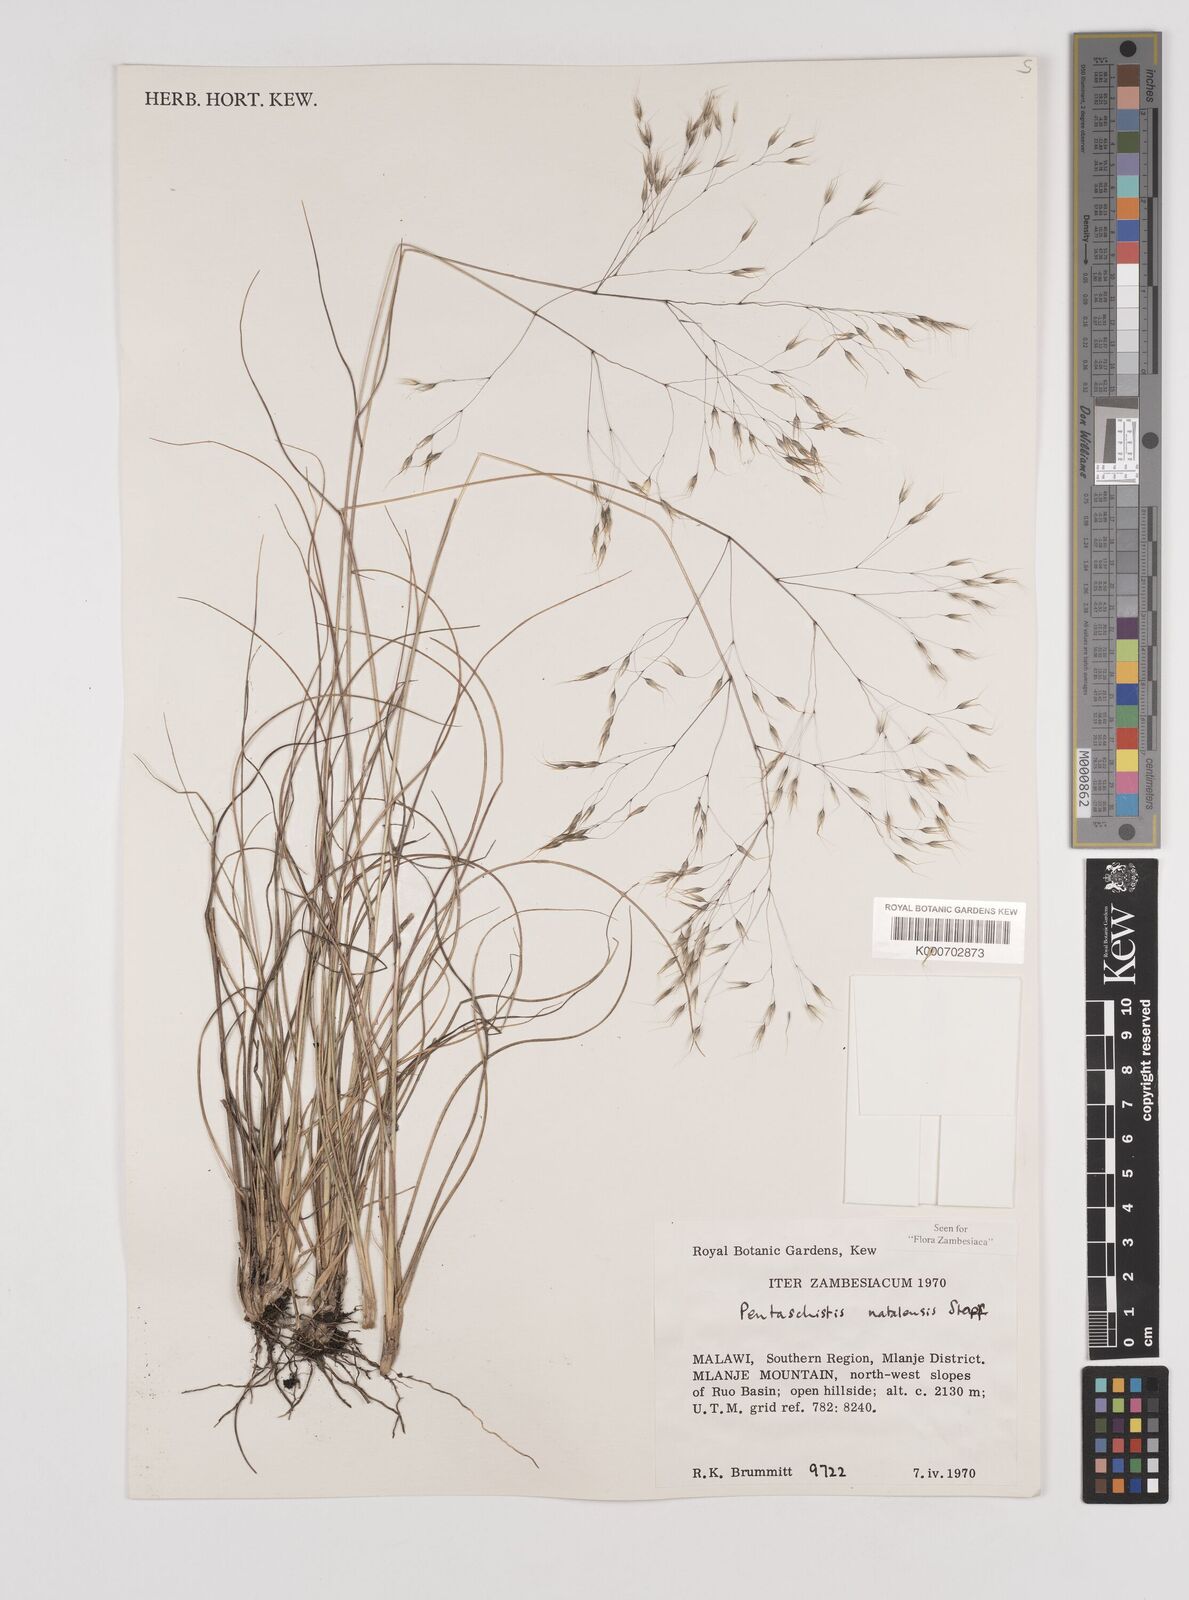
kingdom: Plantae
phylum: Tracheophyta
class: Liliopsida
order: Poales
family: Poaceae
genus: Pentameris
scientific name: Pentameris natalensis
